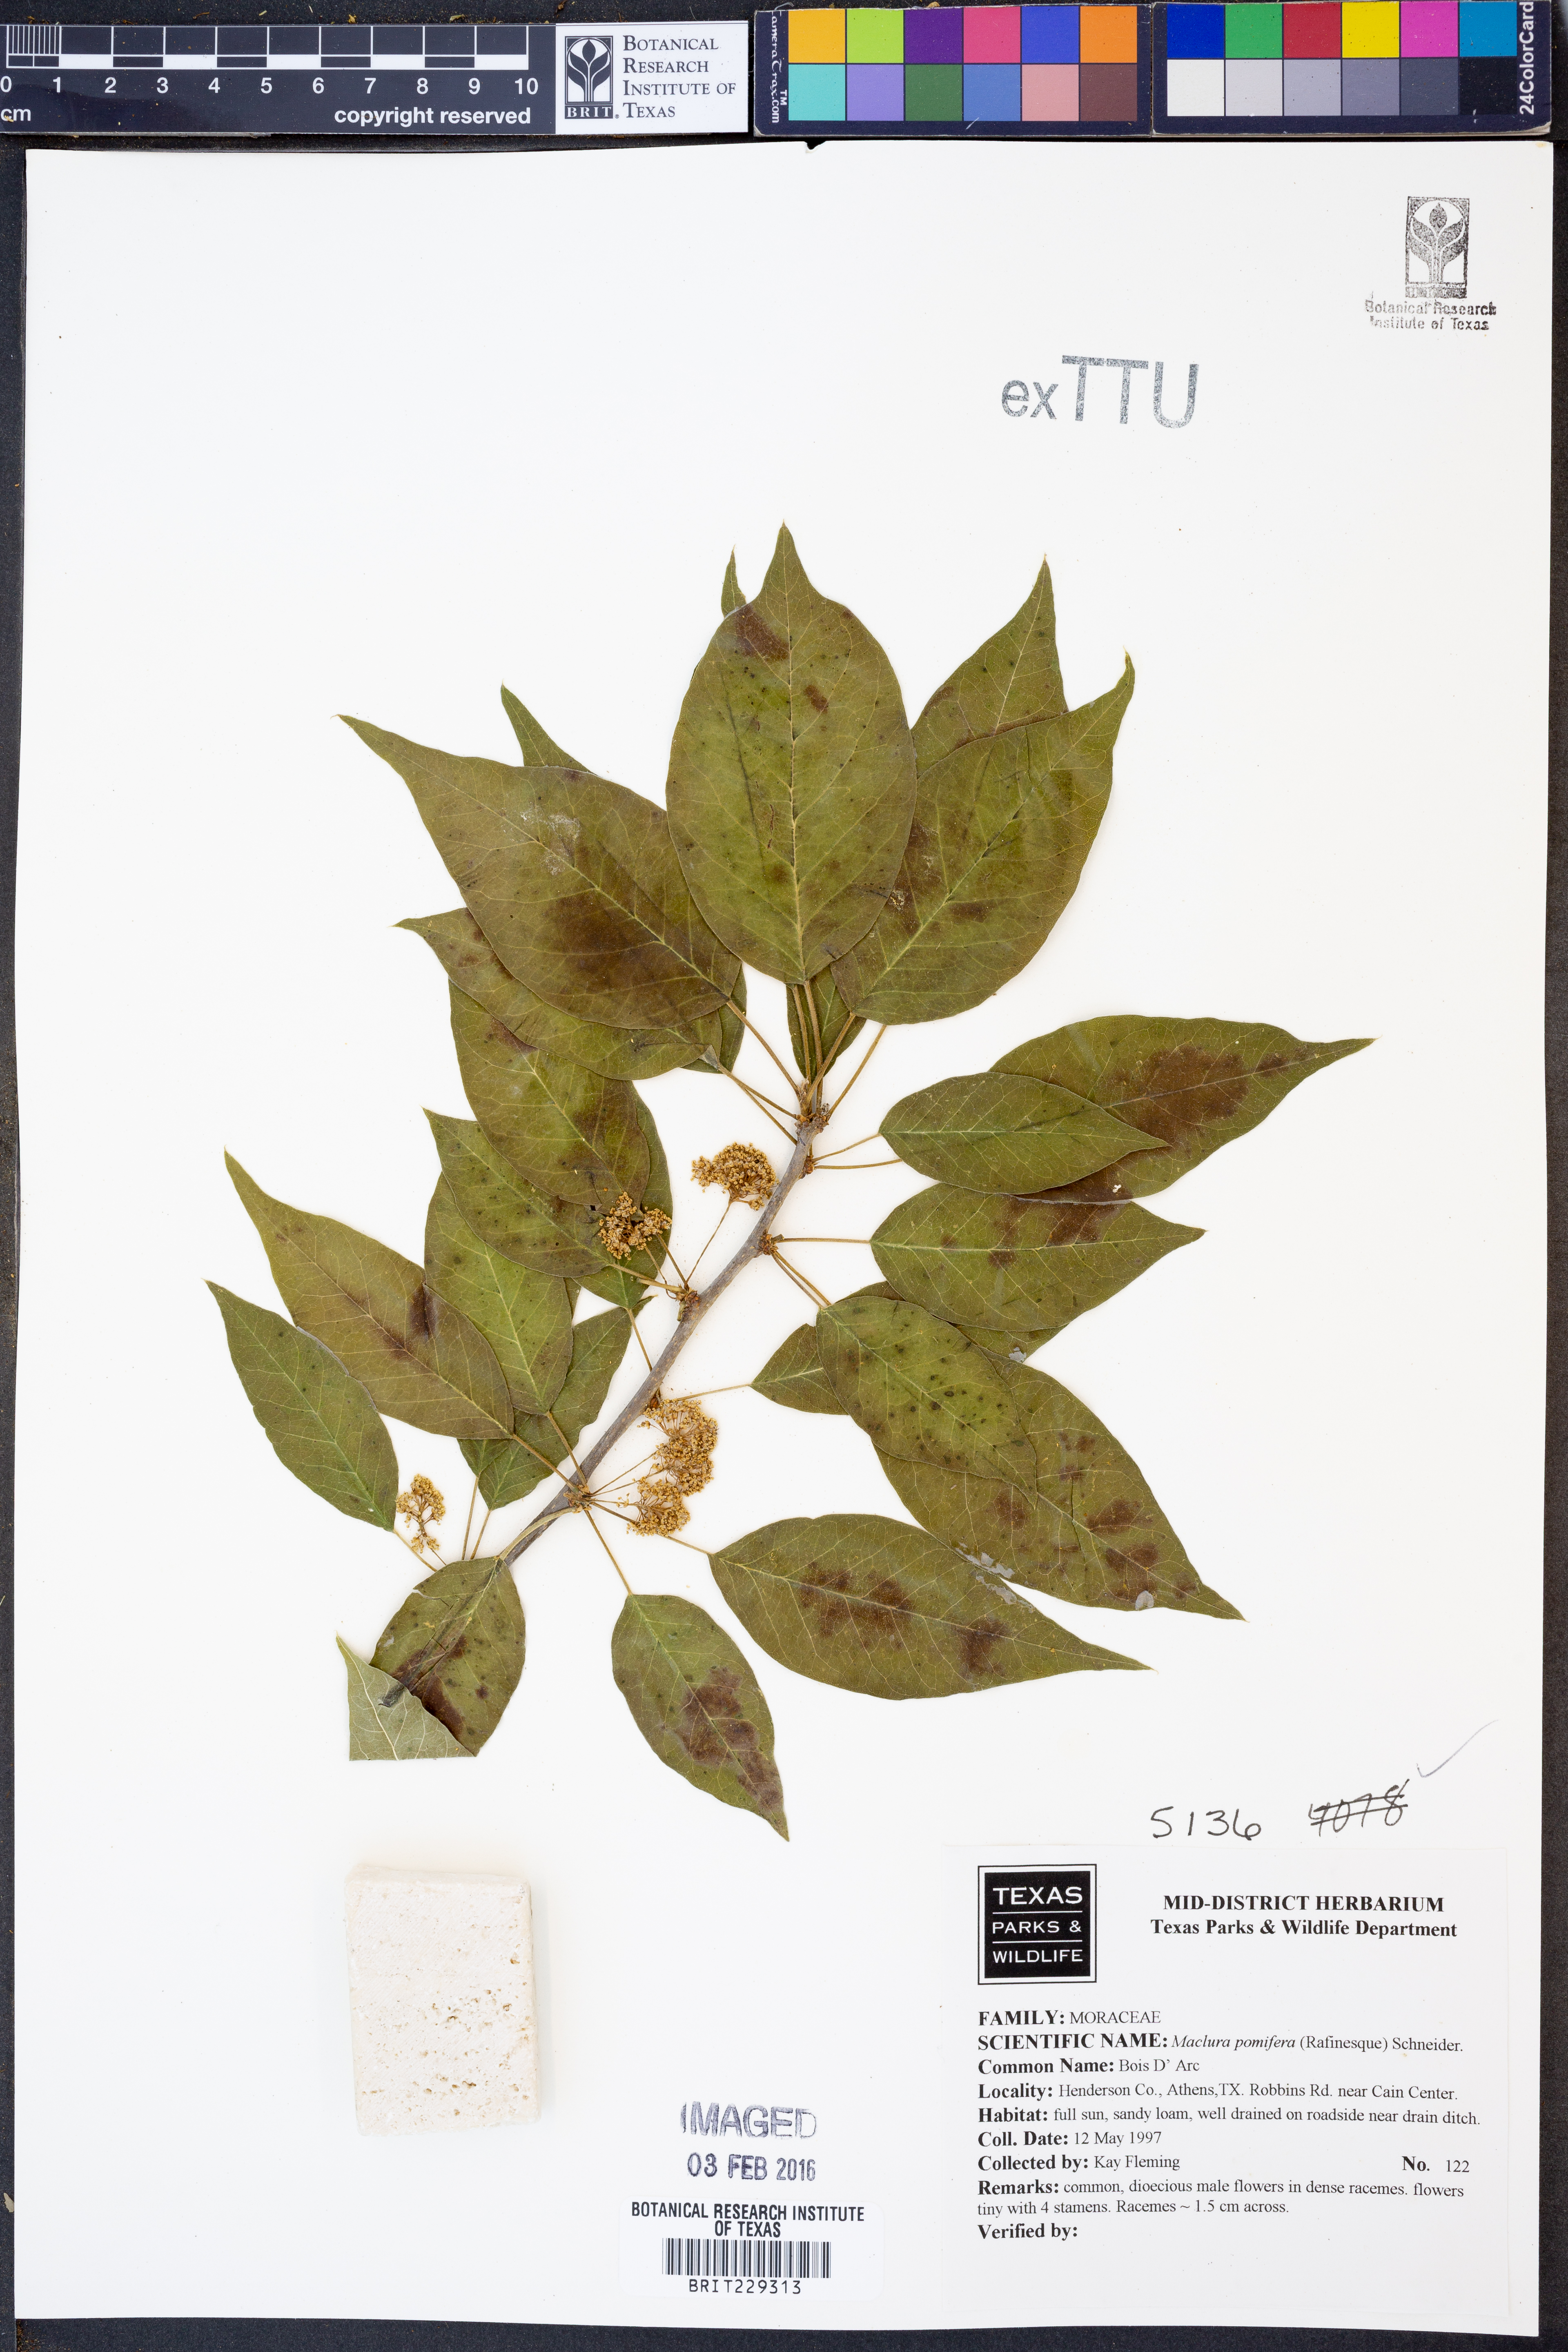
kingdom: Plantae
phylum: Tracheophyta
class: Magnoliopsida
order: Rosales
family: Moraceae
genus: Maclura
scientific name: Maclura pomifera
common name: Osage-orange
